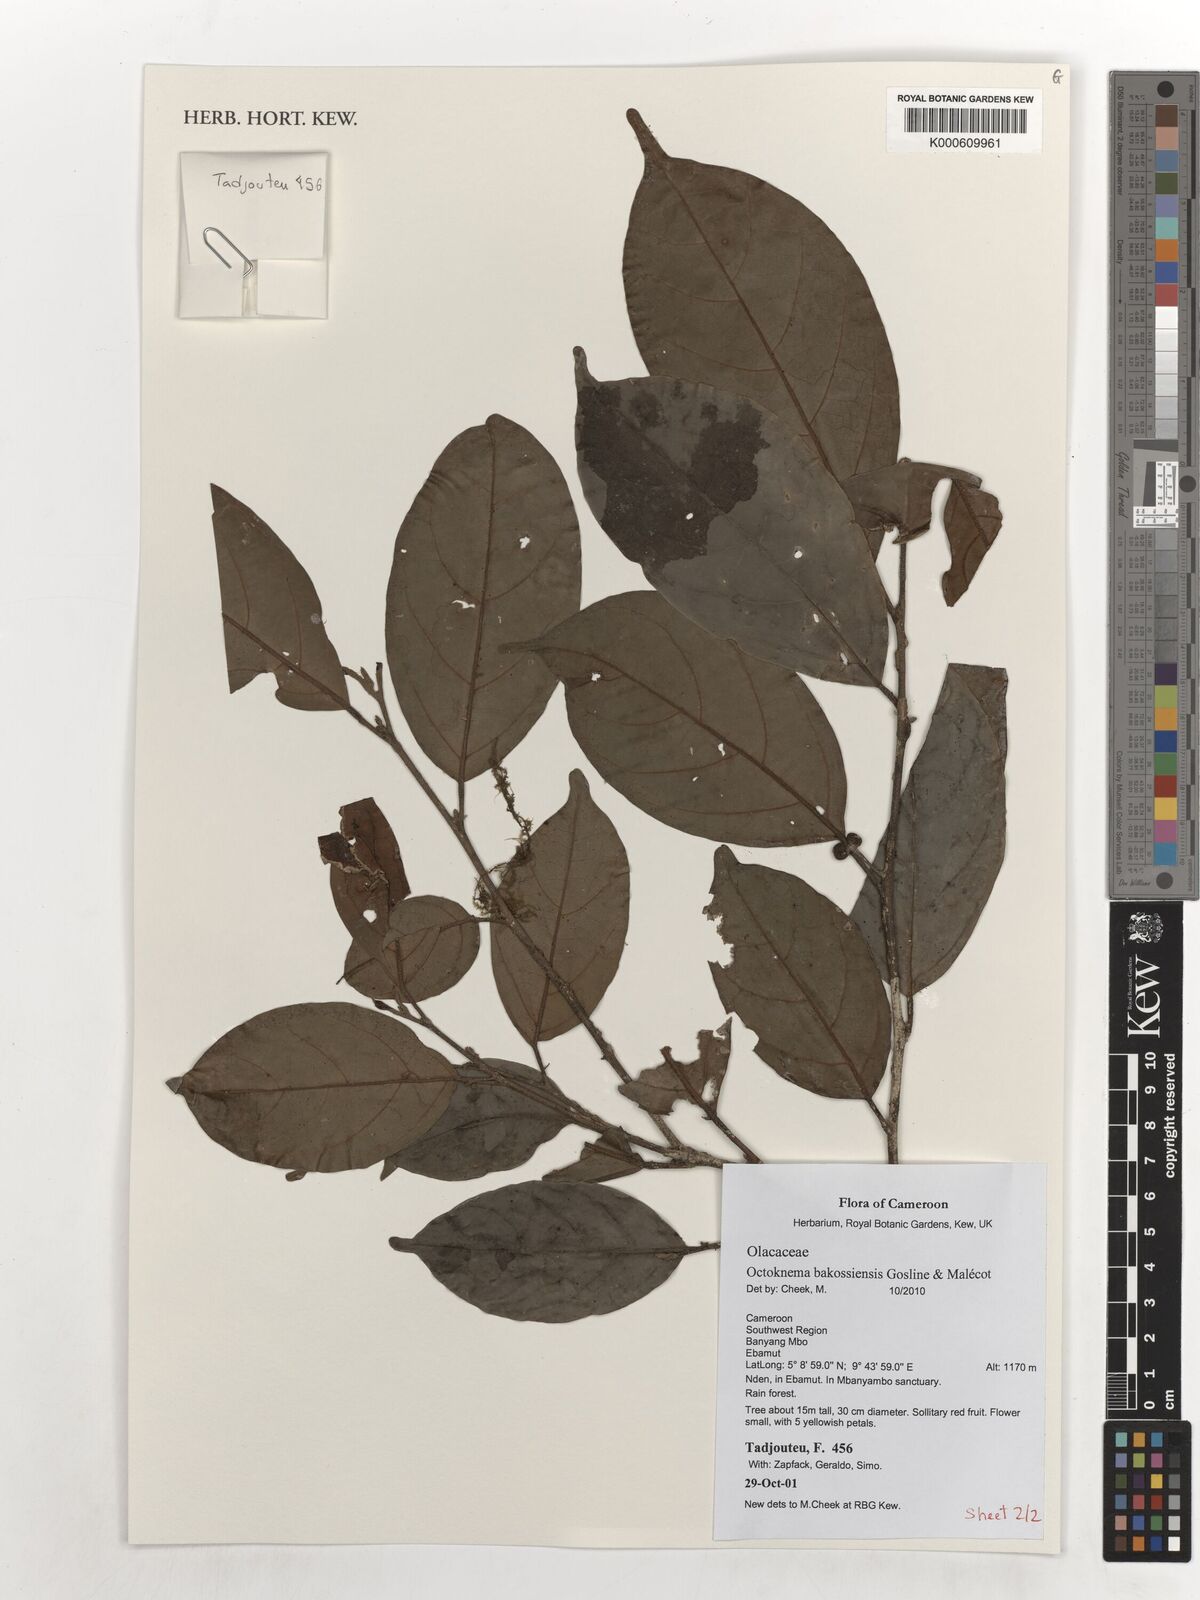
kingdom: Plantae
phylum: Tracheophyta
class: Magnoliopsida
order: Santalales
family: Octoknemaceae
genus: Octoknema
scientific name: Octoknema bakossiensis
